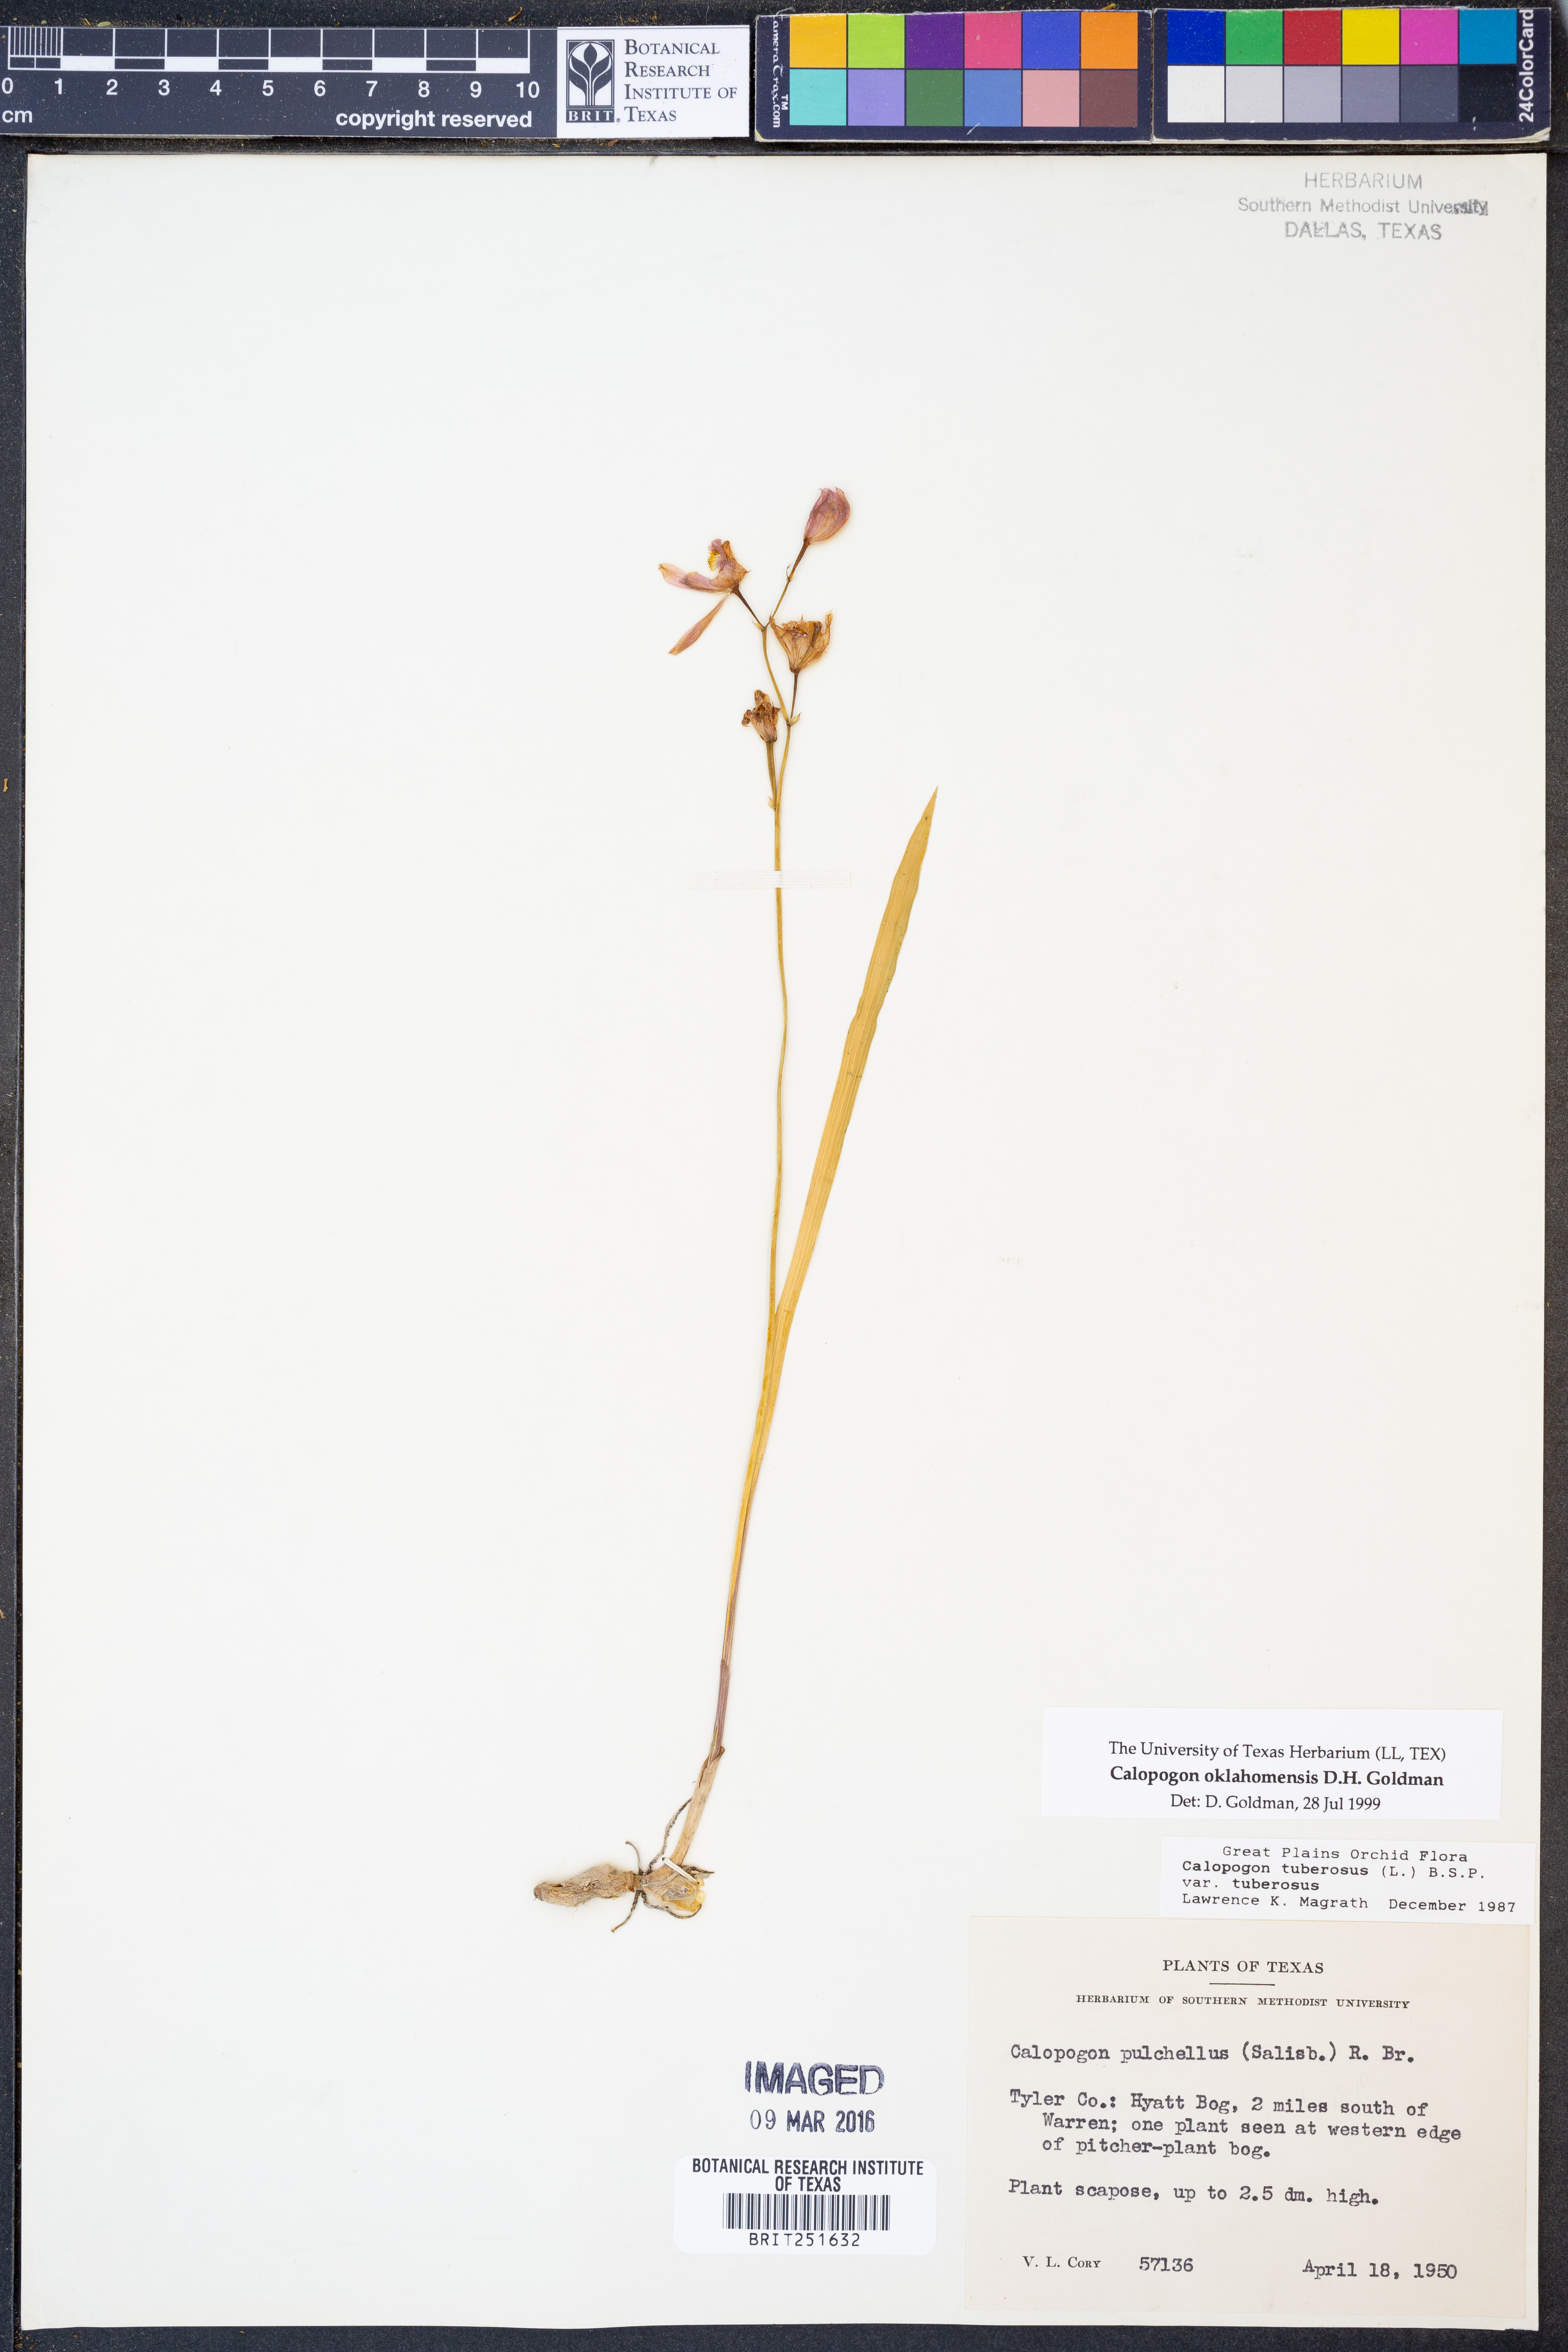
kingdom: Plantae
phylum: Tracheophyta
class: Liliopsida
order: Asparagales
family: Orchidaceae
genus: Calopogon
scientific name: Calopogon oklahomensis
